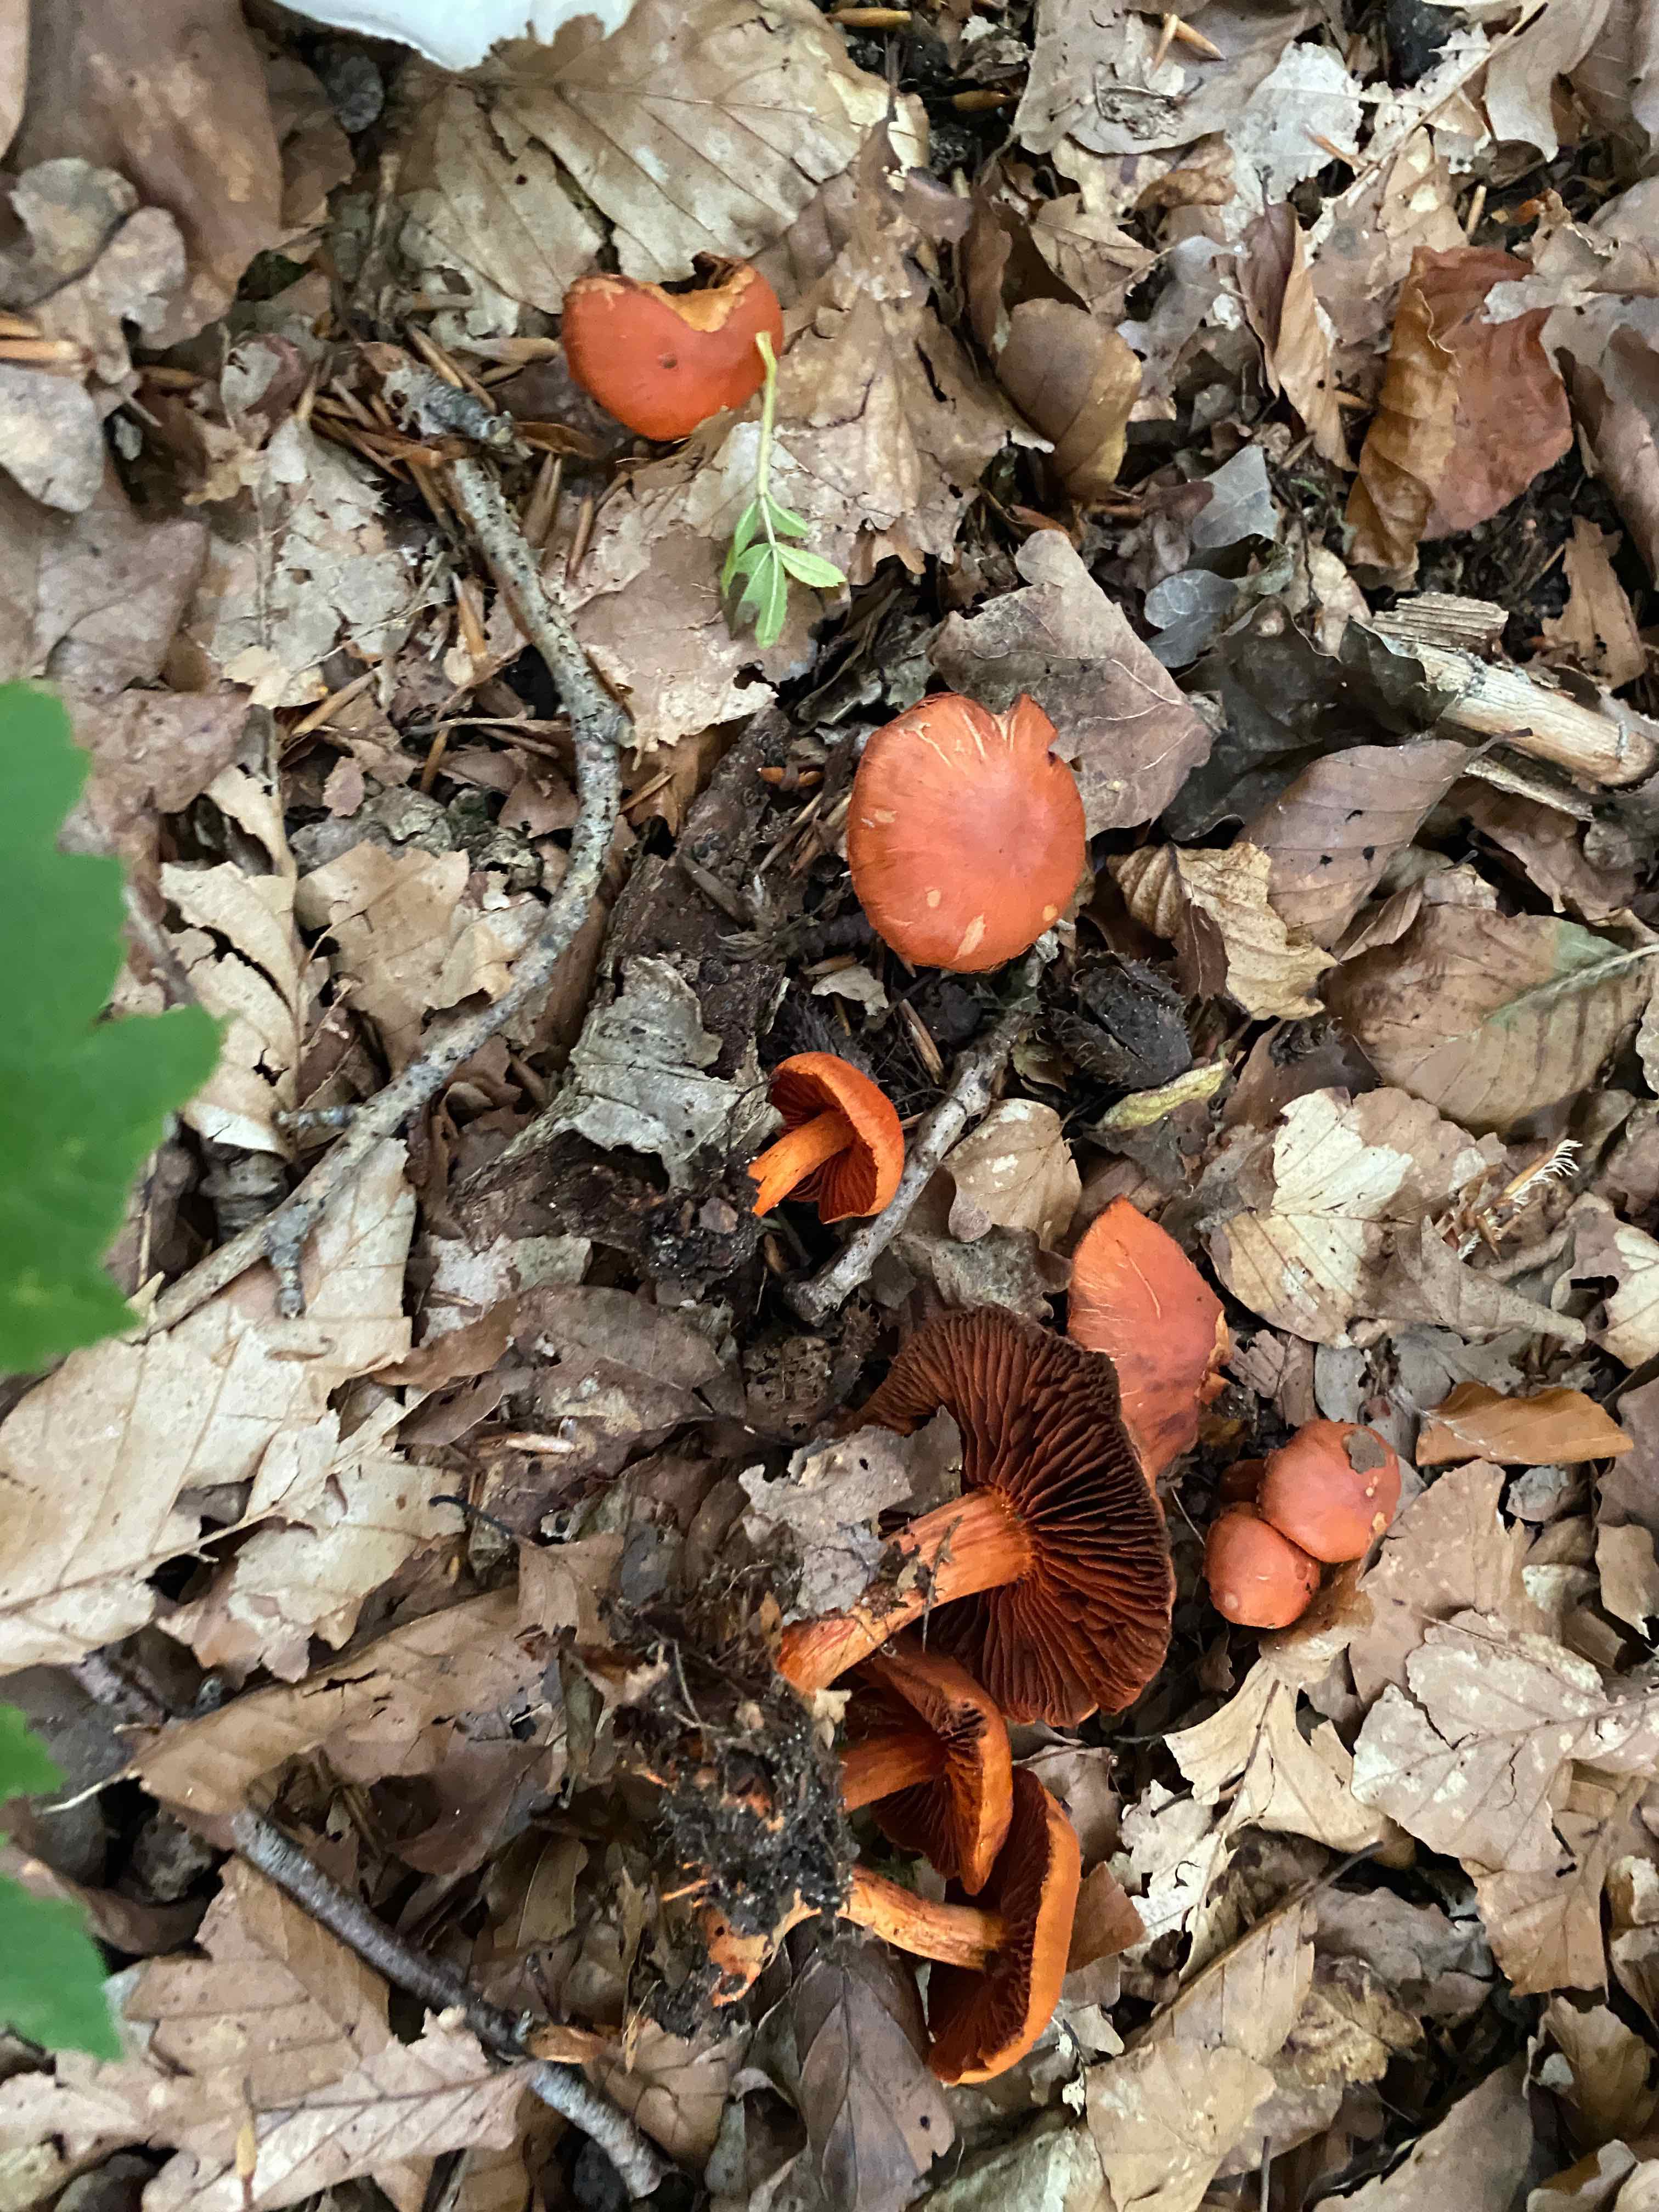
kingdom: Fungi
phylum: Basidiomycota
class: Agaricomycetes
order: Agaricales
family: Cortinariaceae
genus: Cortinarius
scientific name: Cortinarius cinnabarinus
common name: cinnober-slørhat
